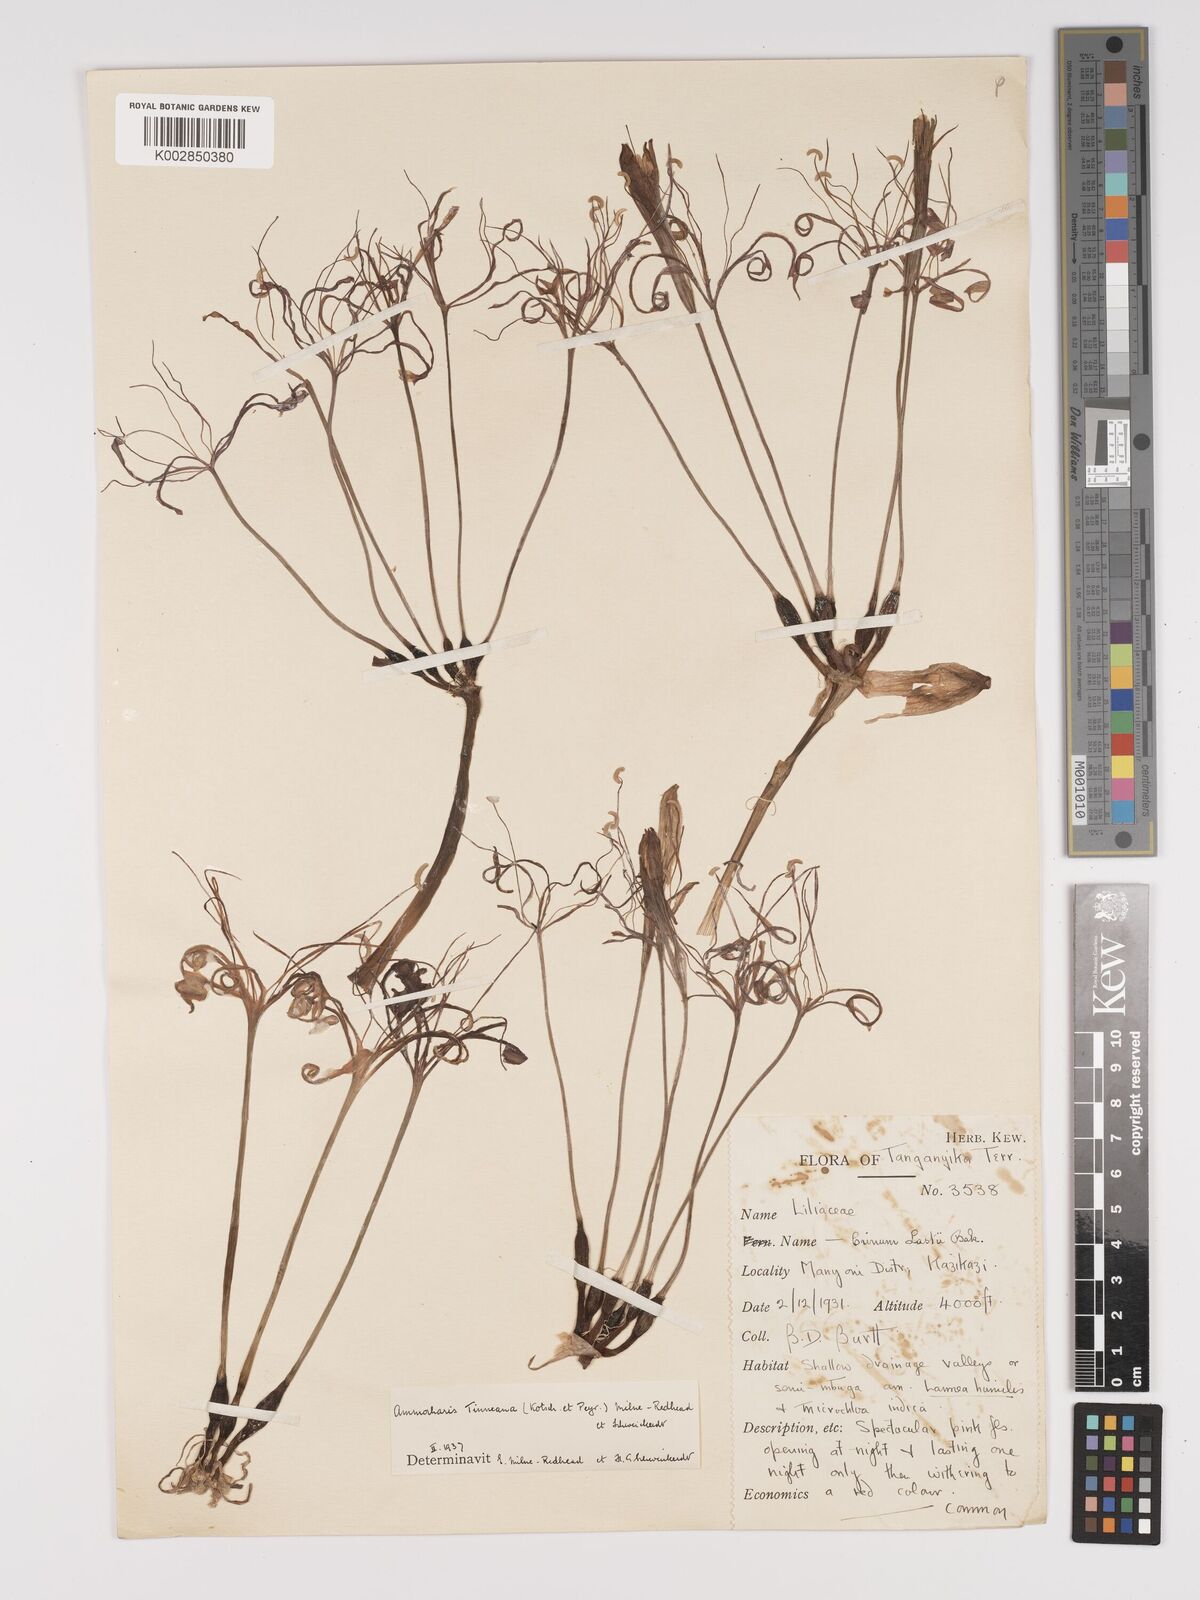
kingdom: Plantae
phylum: Tracheophyta
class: Liliopsida
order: Asparagales
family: Amaryllidaceae
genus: Ammocharis
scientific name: Ammocharis tinneana
